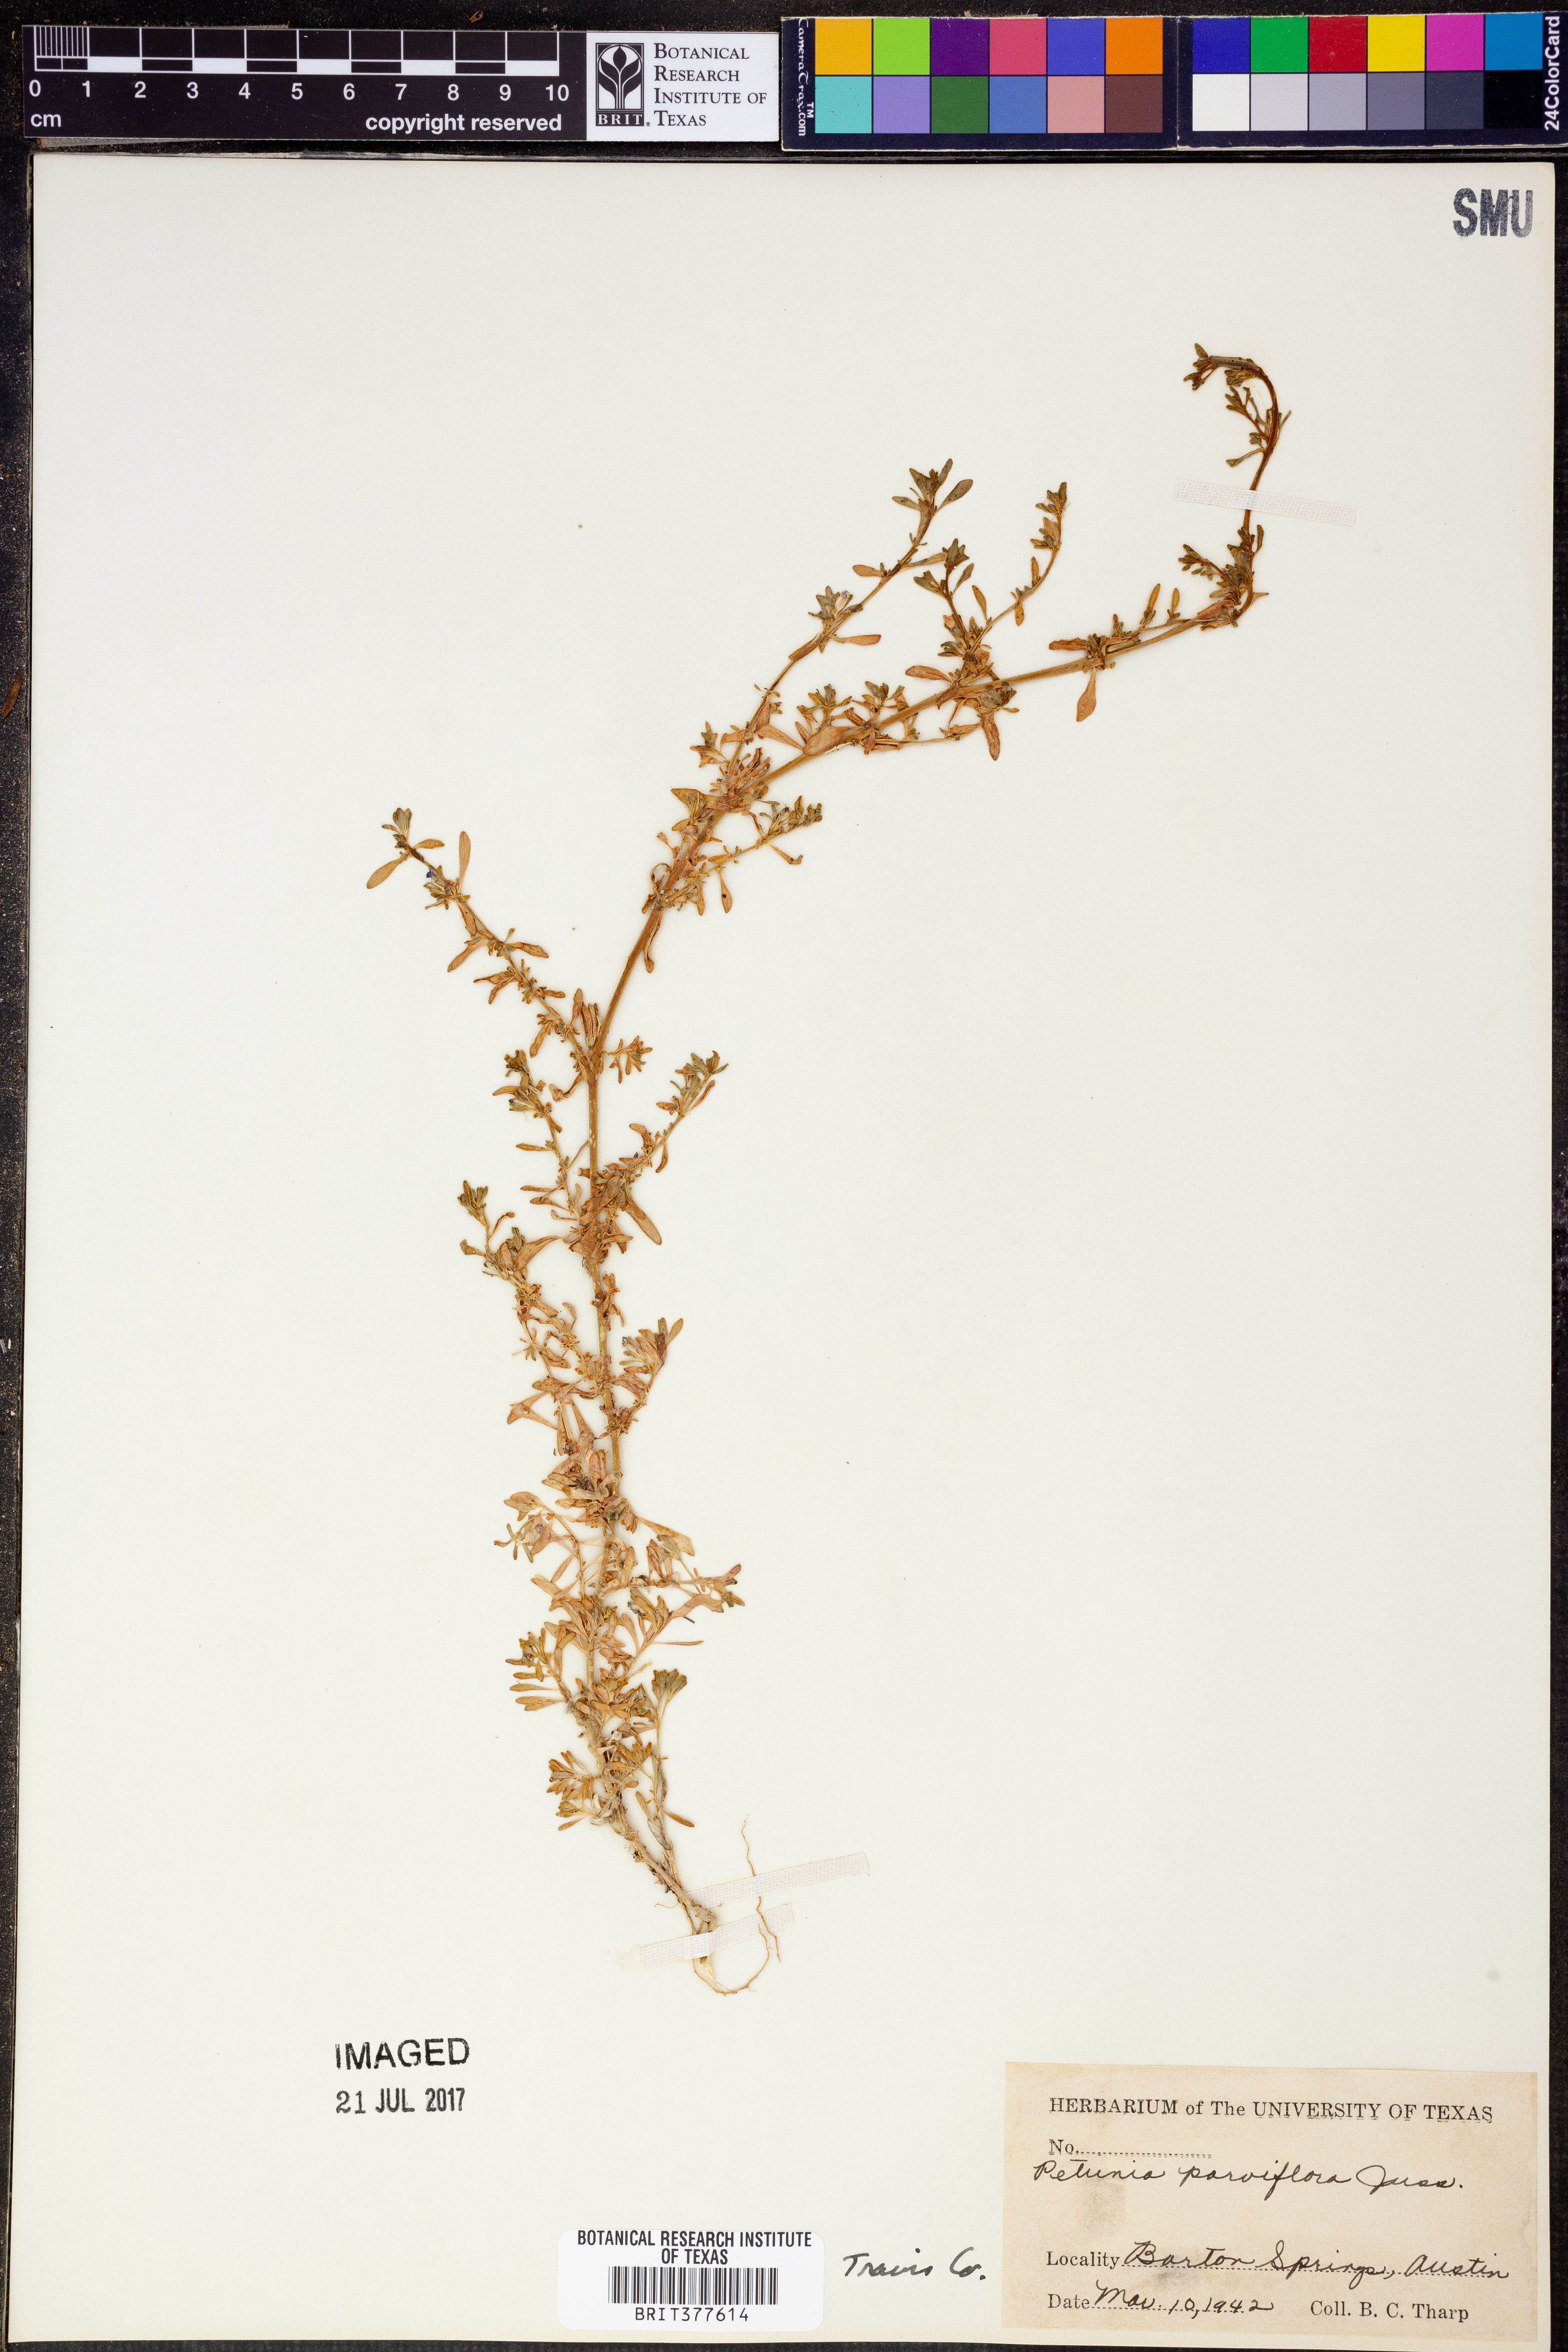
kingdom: Plantae
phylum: Tracheophyta
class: Magnoliopsida
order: Solanales
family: Solanaceae
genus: Calibrachoa
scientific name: Calibrachoa parviflora
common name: Seaside petunia
